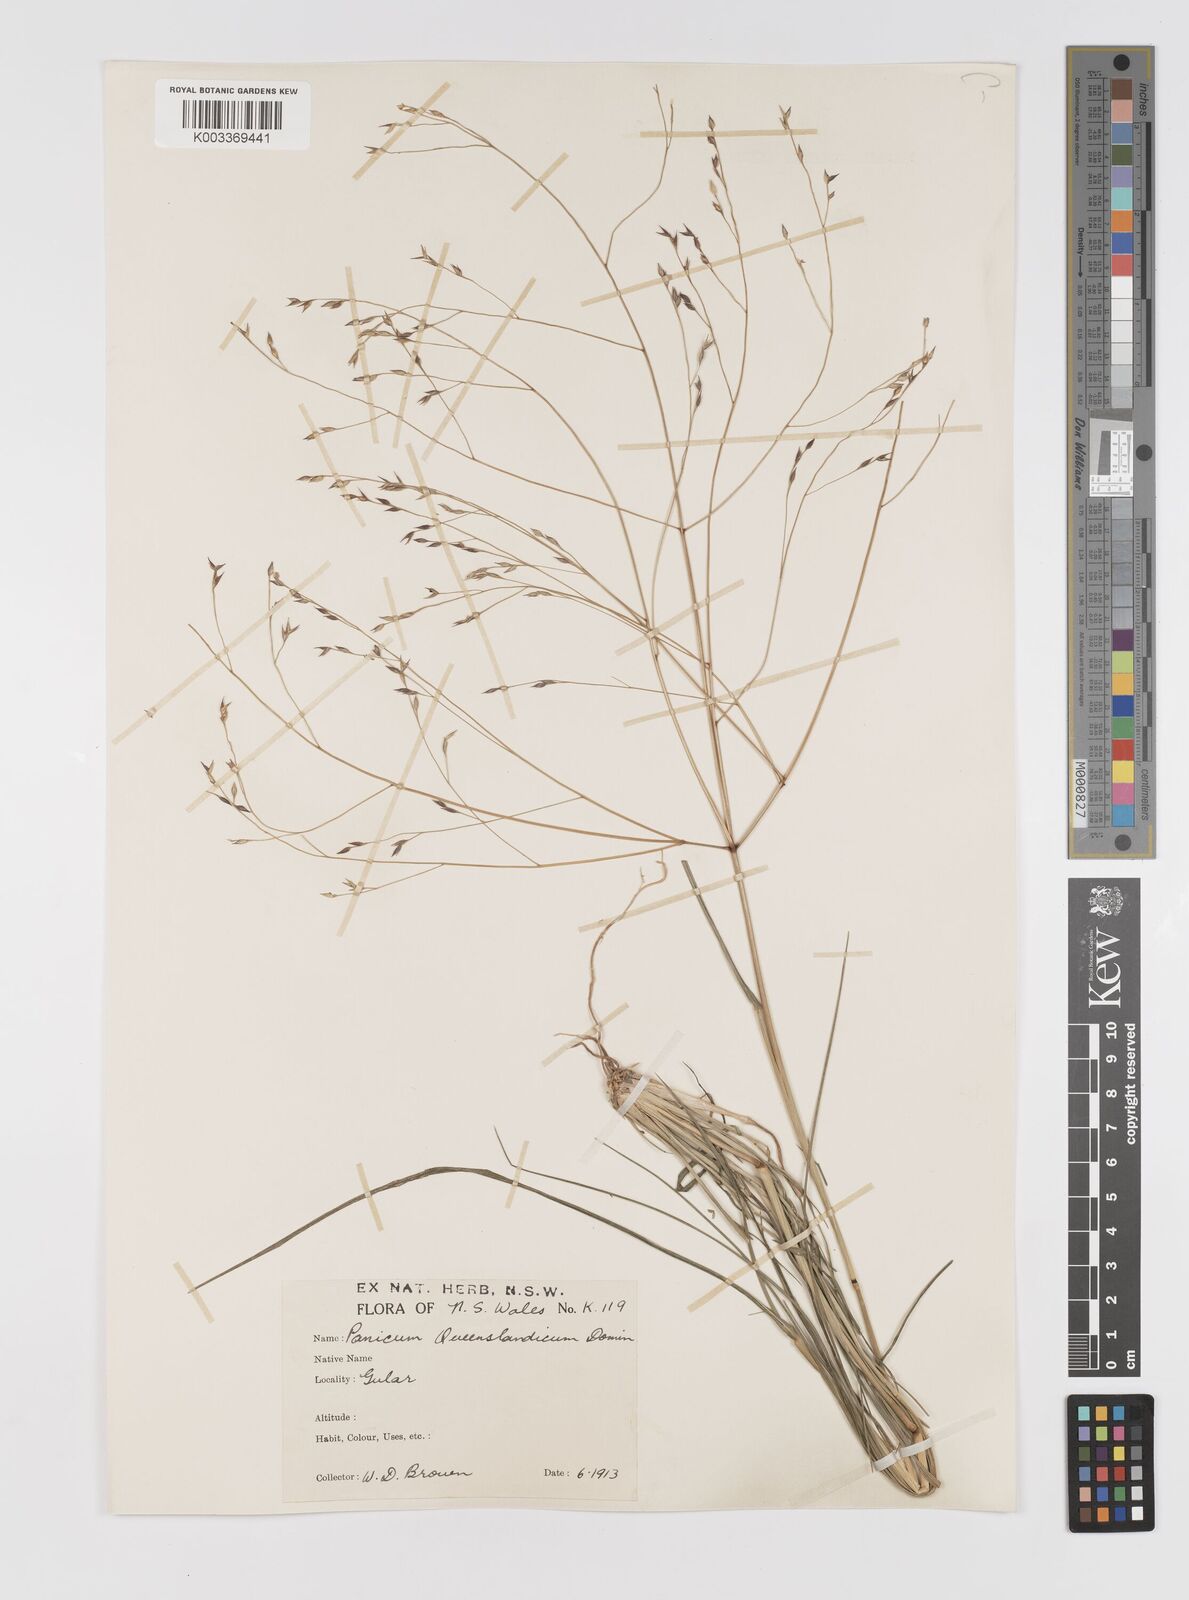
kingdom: Plantae
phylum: Tracheophyta
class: Liliopsida
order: Poales
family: Poaceae
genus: Panicum
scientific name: Panicum queenslandicum
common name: Yabila grass
